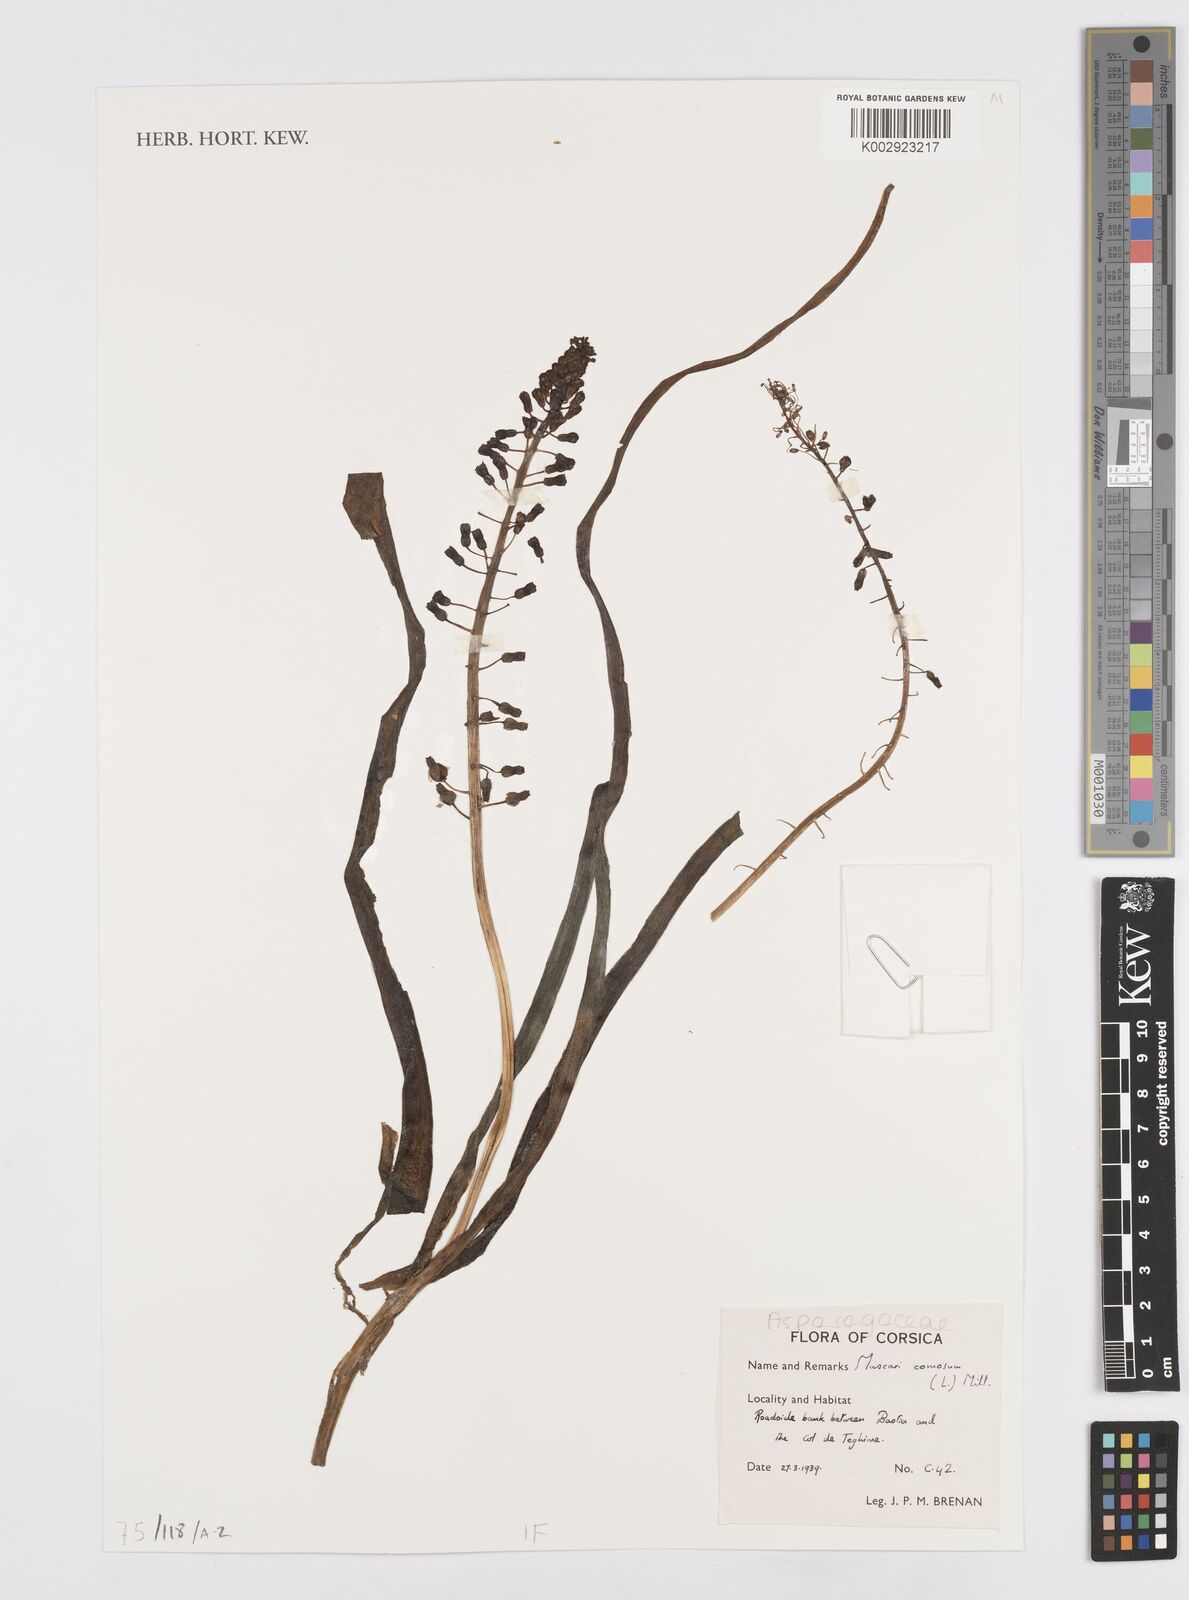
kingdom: Plantae
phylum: Tracheophyta
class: Liliopsida
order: Asparagales
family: Asparagaceae
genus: Muscari
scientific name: Muscari comosum
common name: Tassel hyacinth
